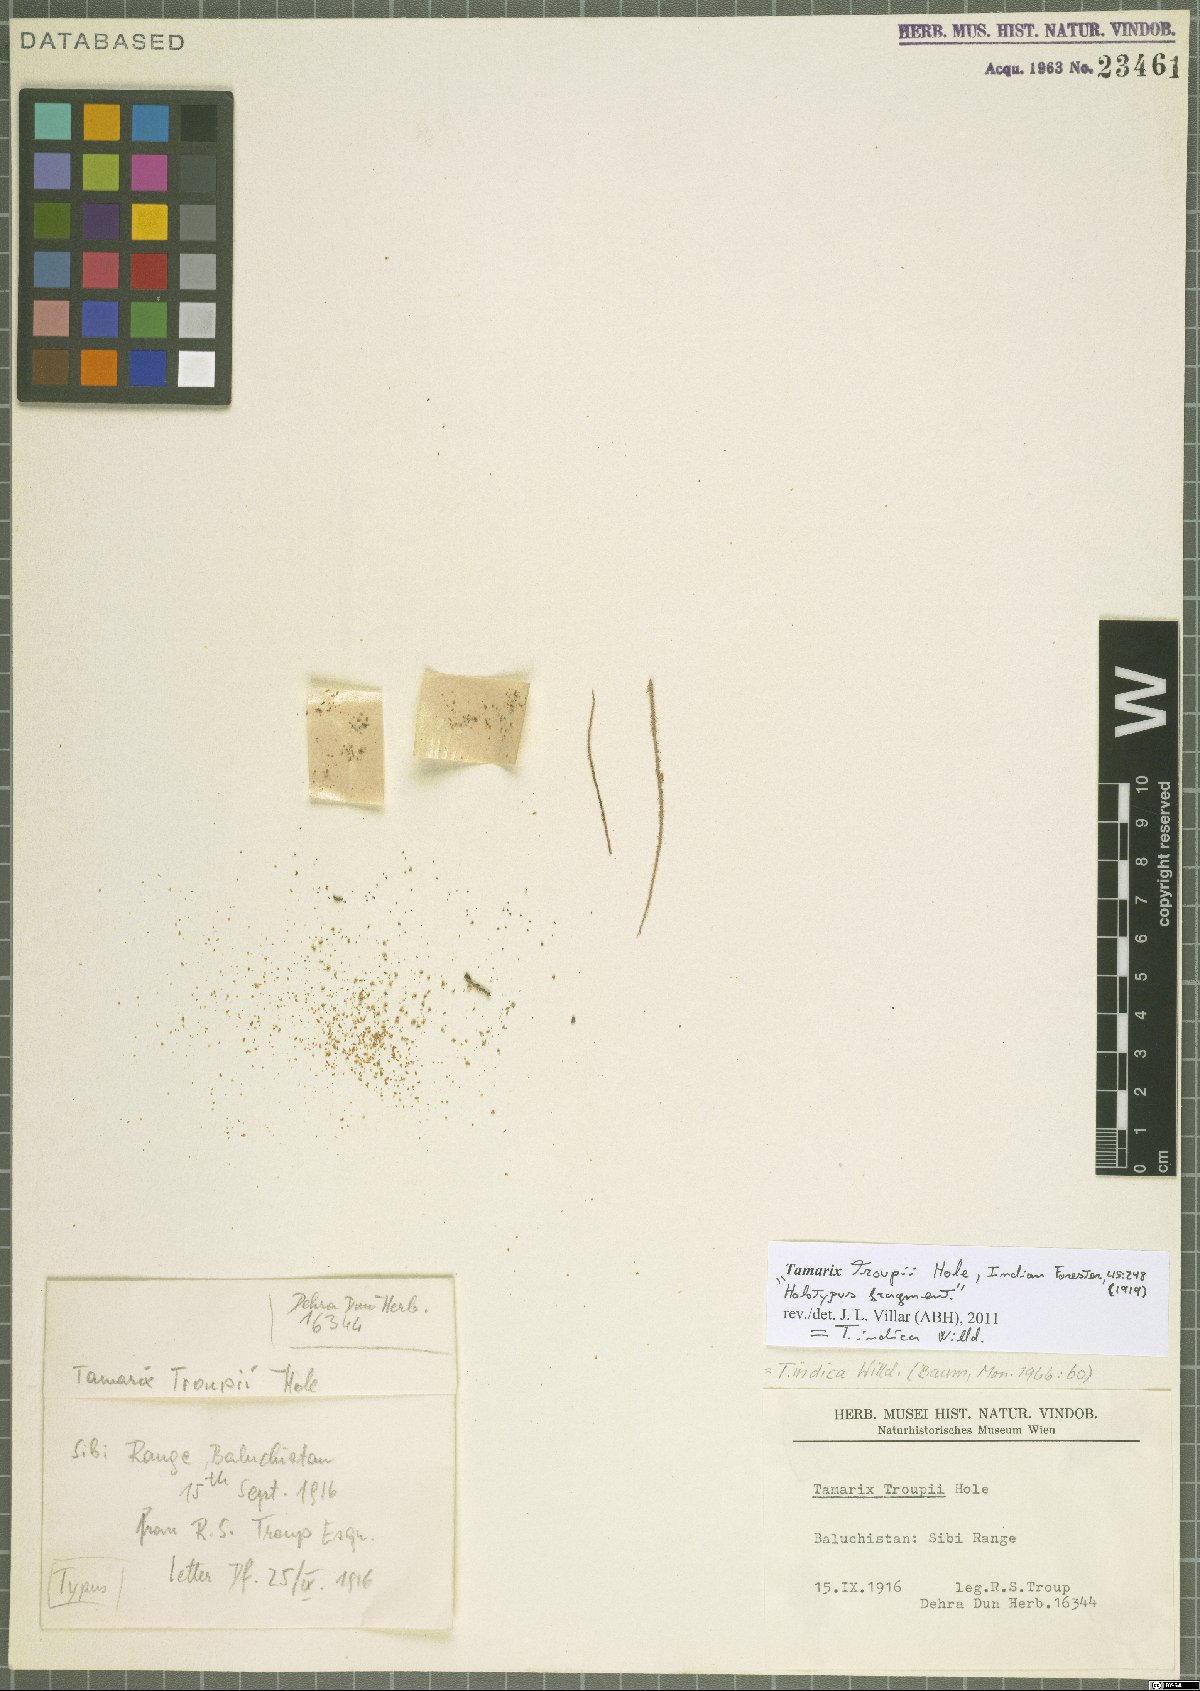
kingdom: Plantae
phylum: Tracheophyta
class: Magnoliopsida
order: Caryophyllales
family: Tamaricaceae
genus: Tamarix
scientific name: Tamarix indica
